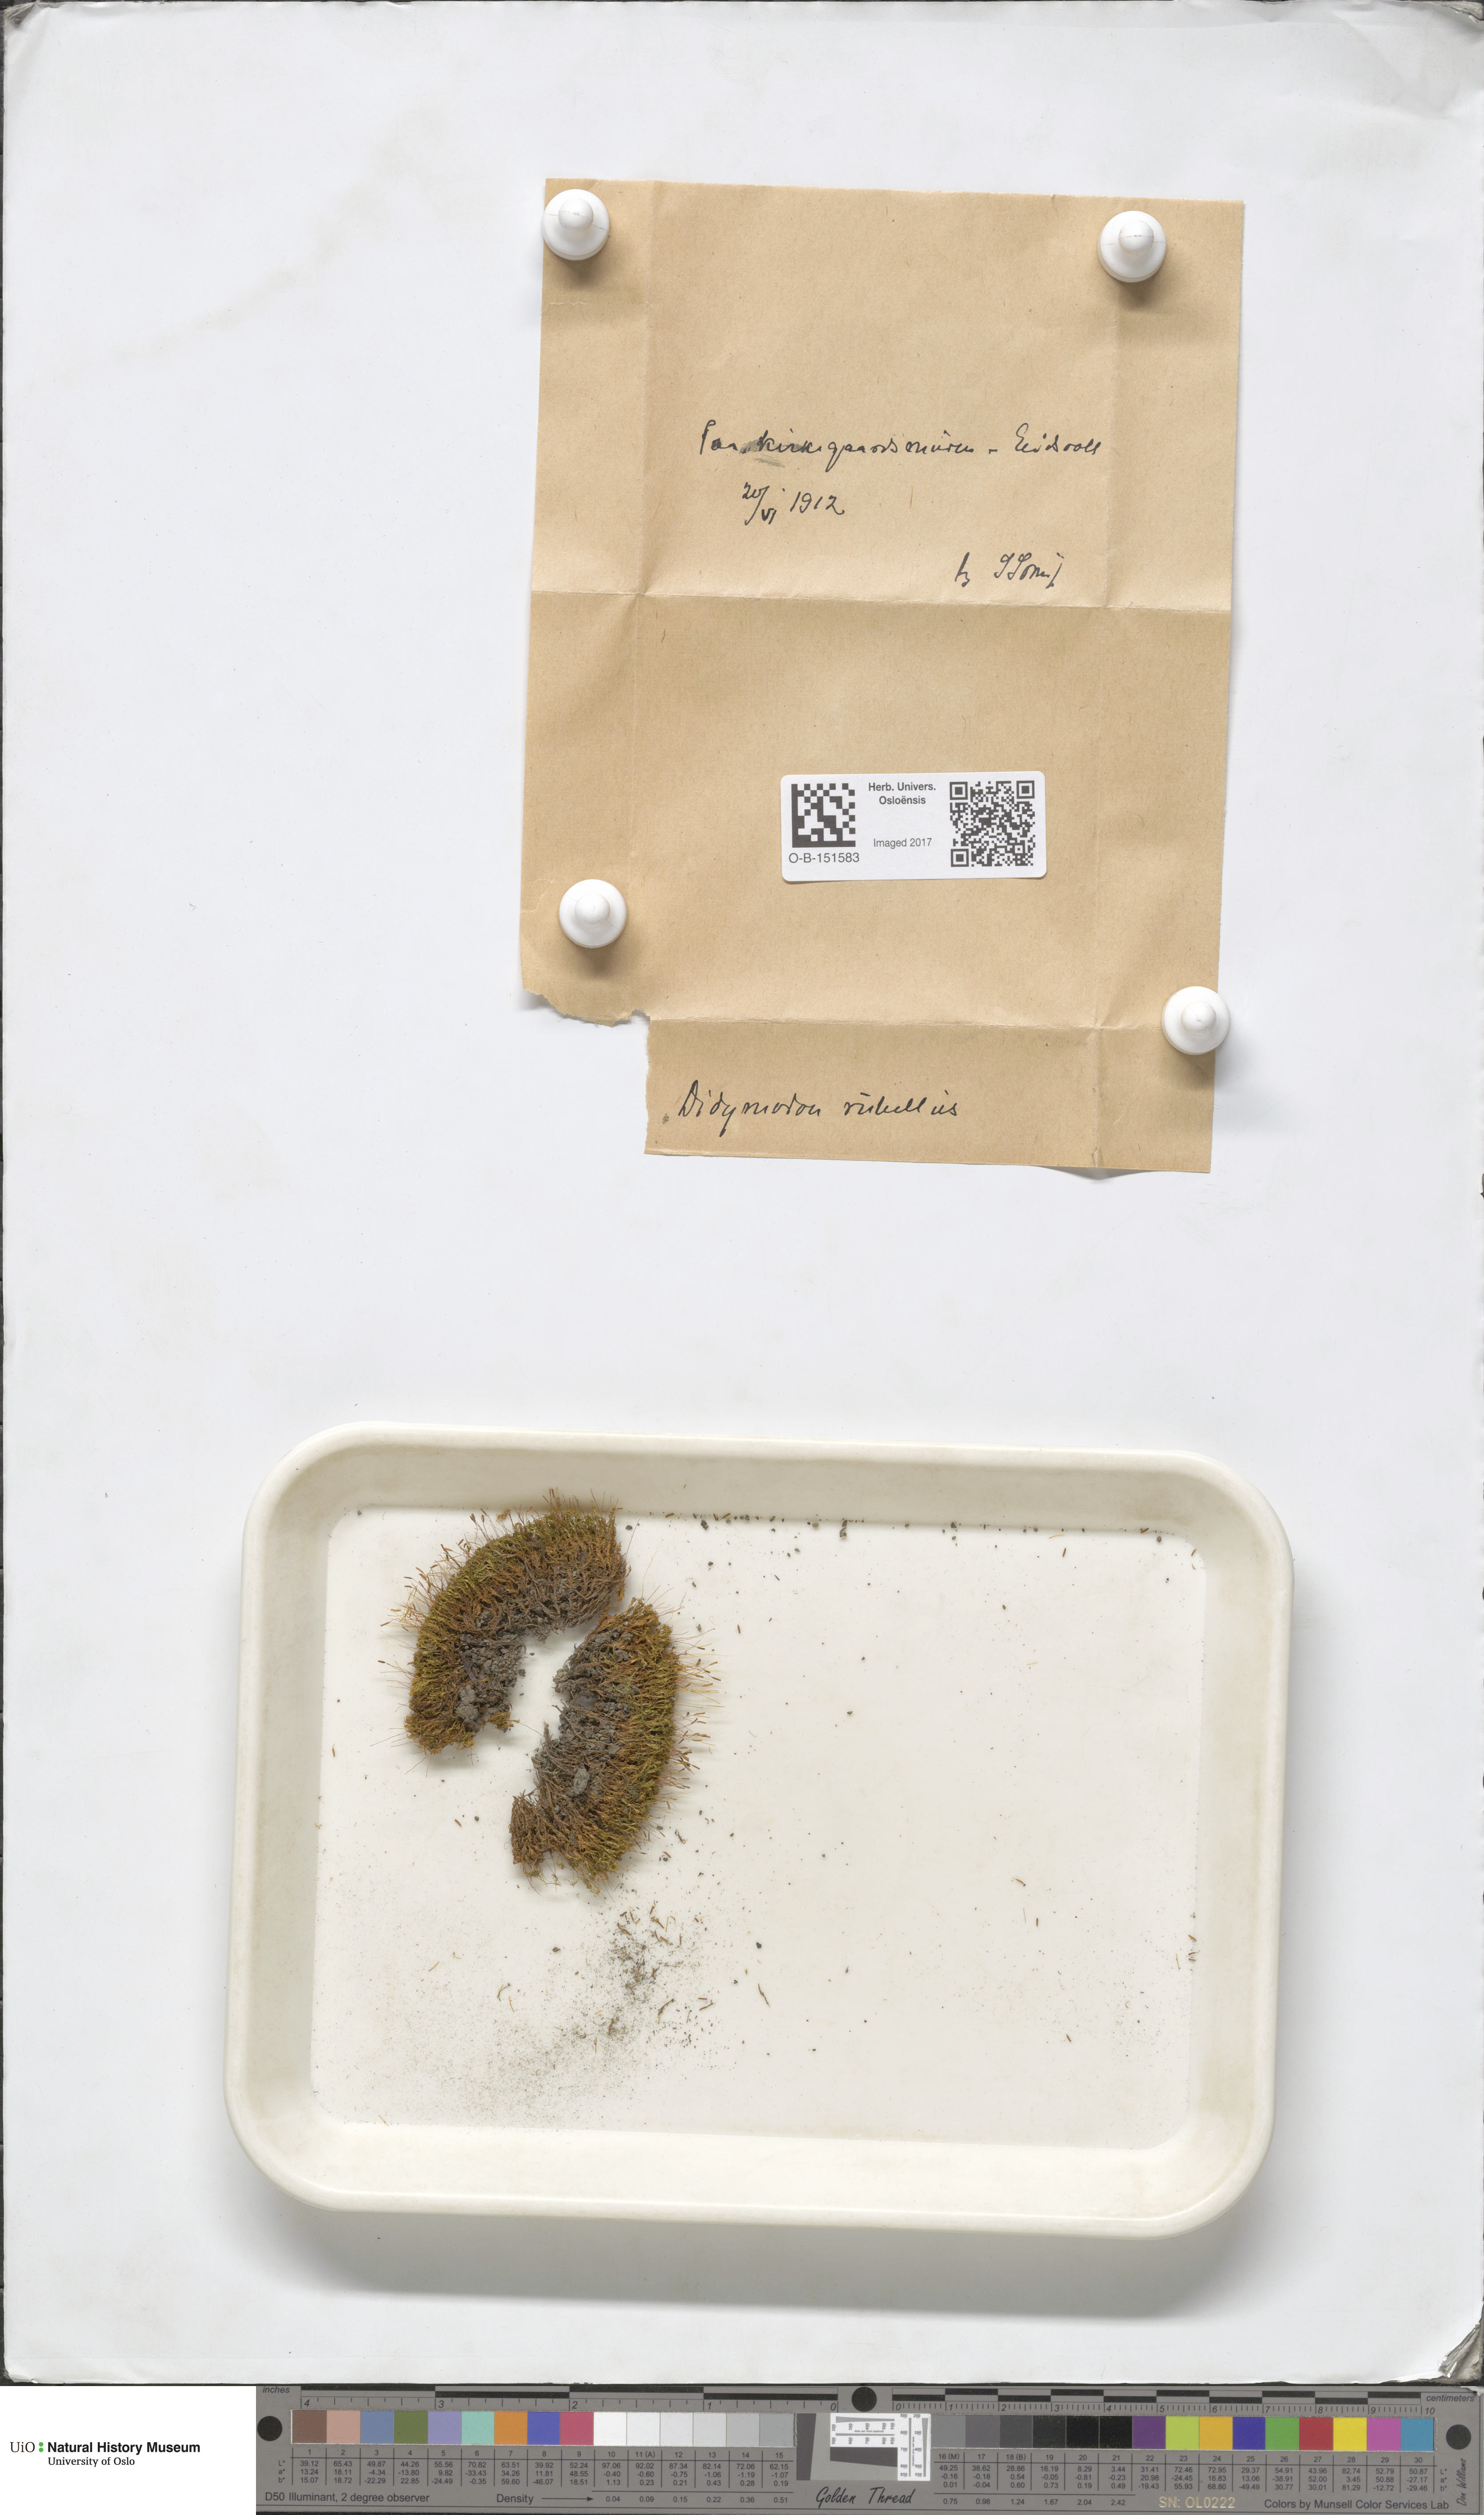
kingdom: Plantae
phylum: Bryophyta
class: Bryopsida
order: Pottiales
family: Pottiaceae
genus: Bryoerythrophyllum
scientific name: Bryoerythrophyllum recurvirostrum
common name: Red beard moss
